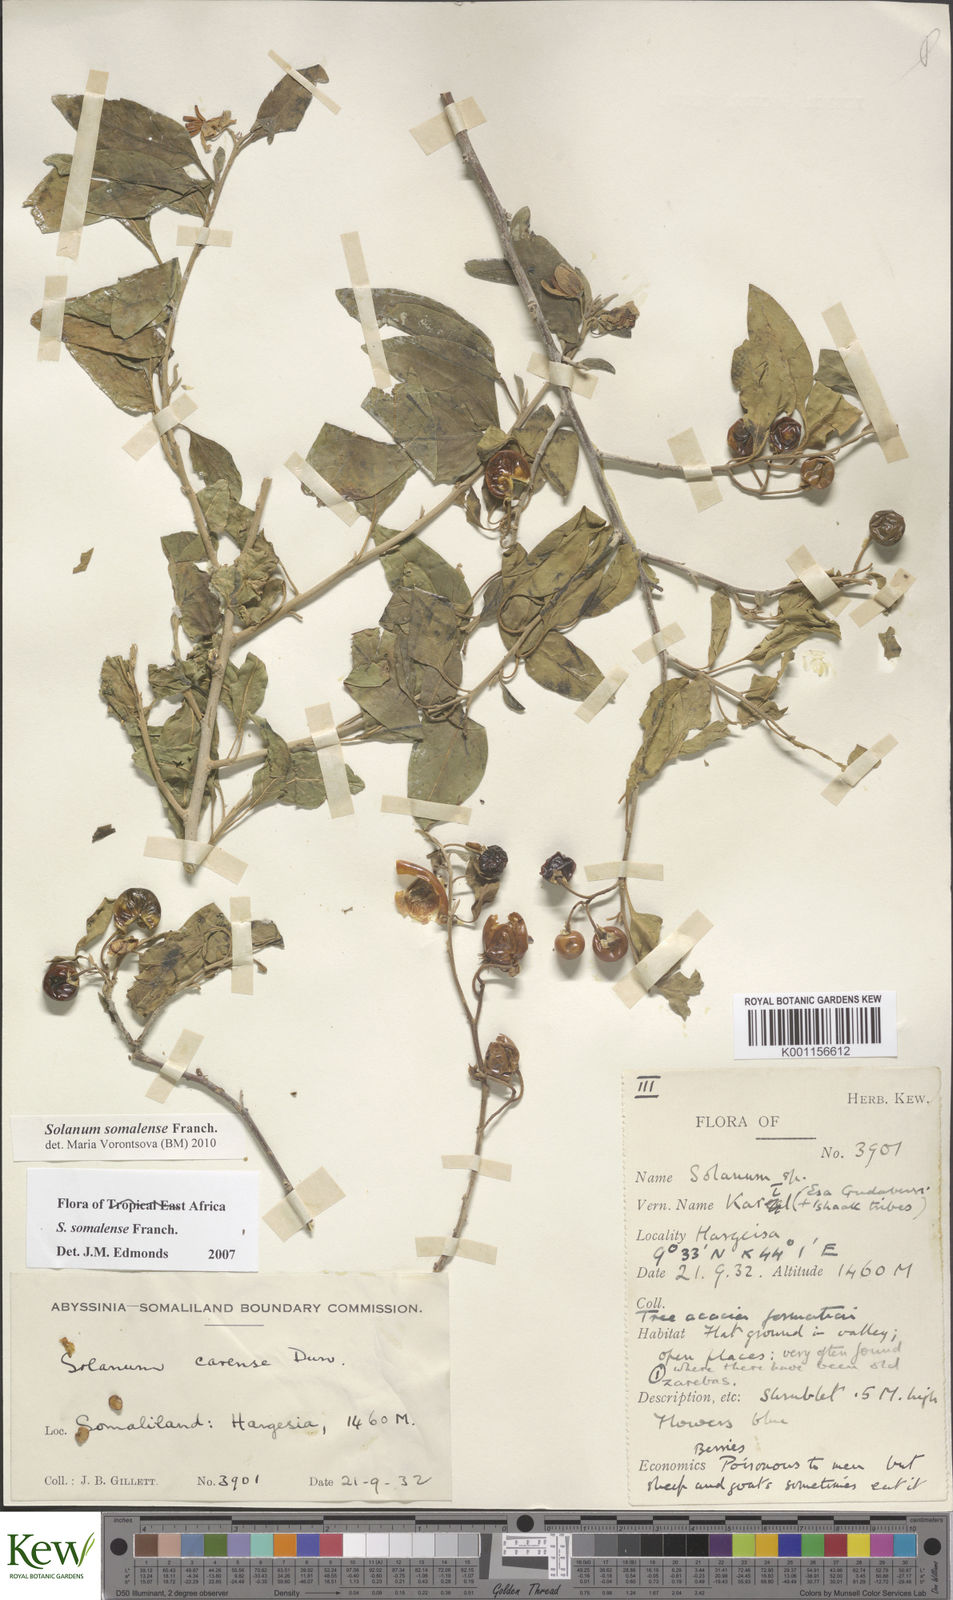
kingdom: Plantae
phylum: Tracheophyta
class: Magnoliopsida
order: Solanales
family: Solanaceae
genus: Solanum
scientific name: Solanum somalense
